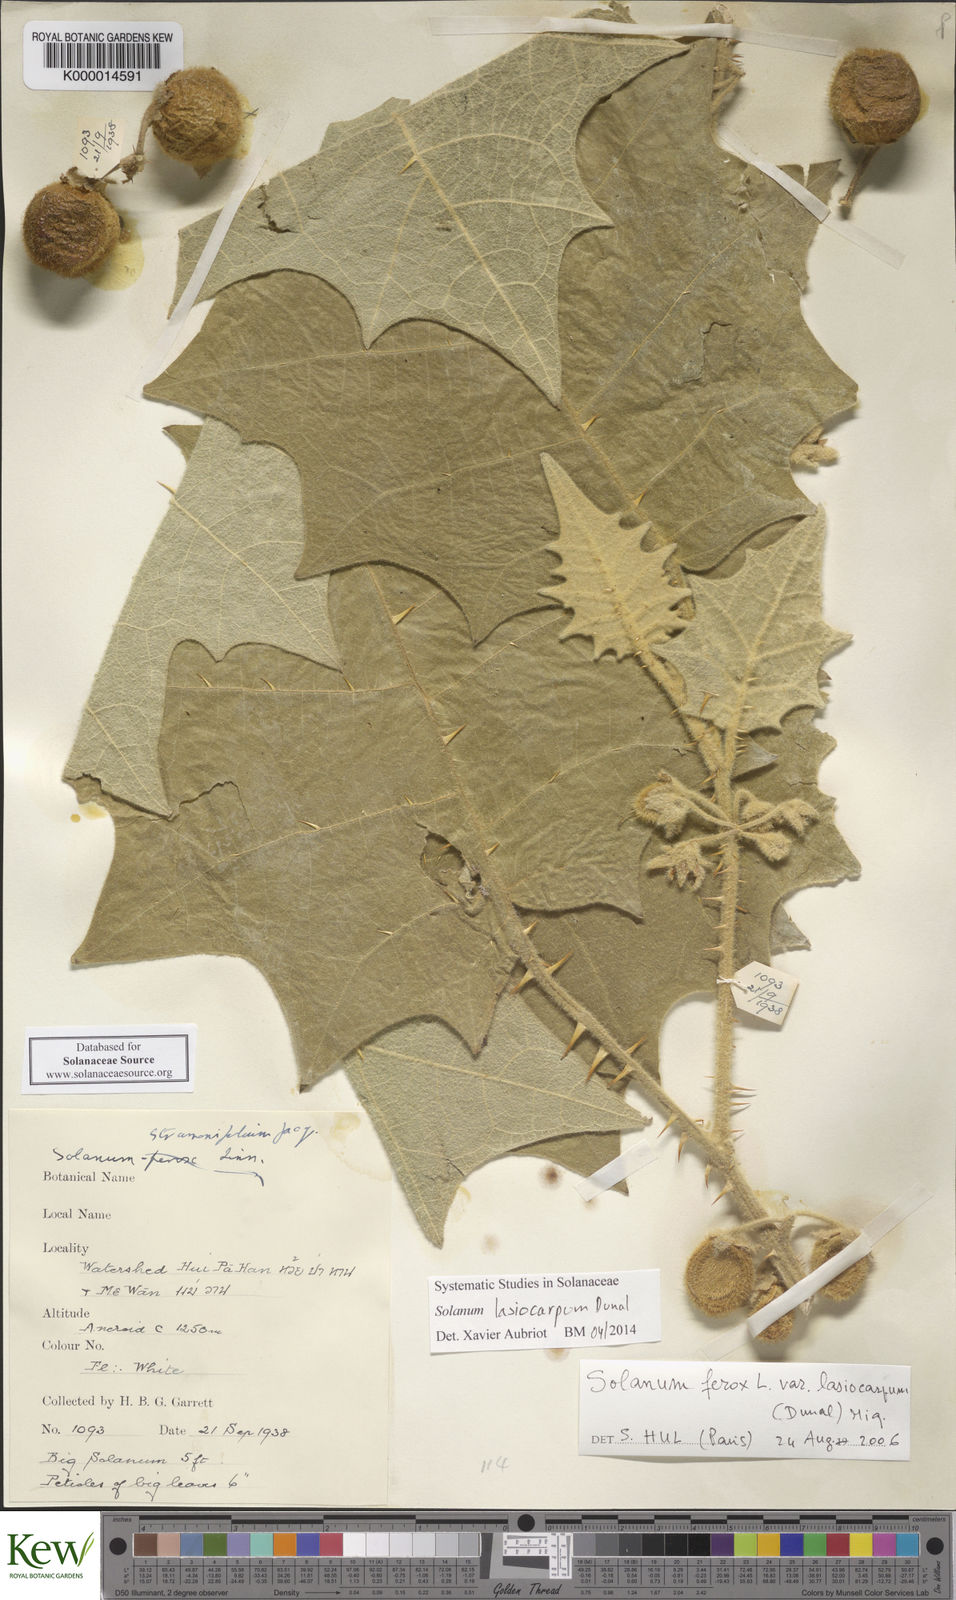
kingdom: Plantae
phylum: Tracheophyta
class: Magnoliopsida
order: Solanales
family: Solanaceae
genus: Solanum
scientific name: Solanum lasiocarpum
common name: Indian nightshade
